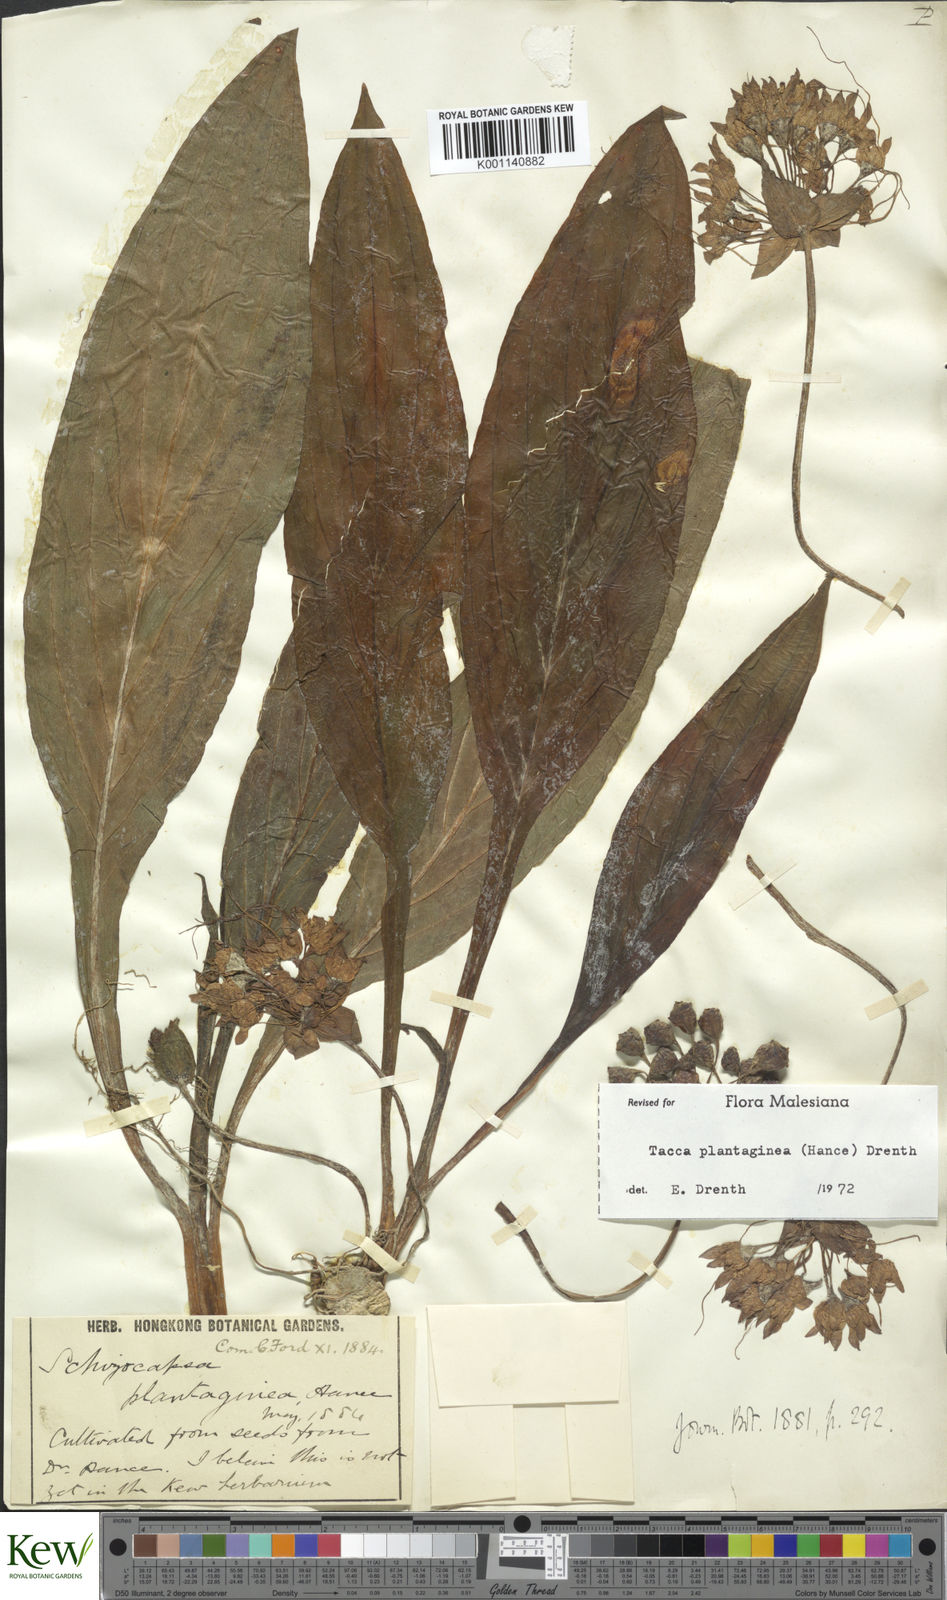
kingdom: Plantae
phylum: Tracheophyta
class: Liliopsida
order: Dioscoreales
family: Dioscoreaceae
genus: Tacca
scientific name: Tacca plantaginea
